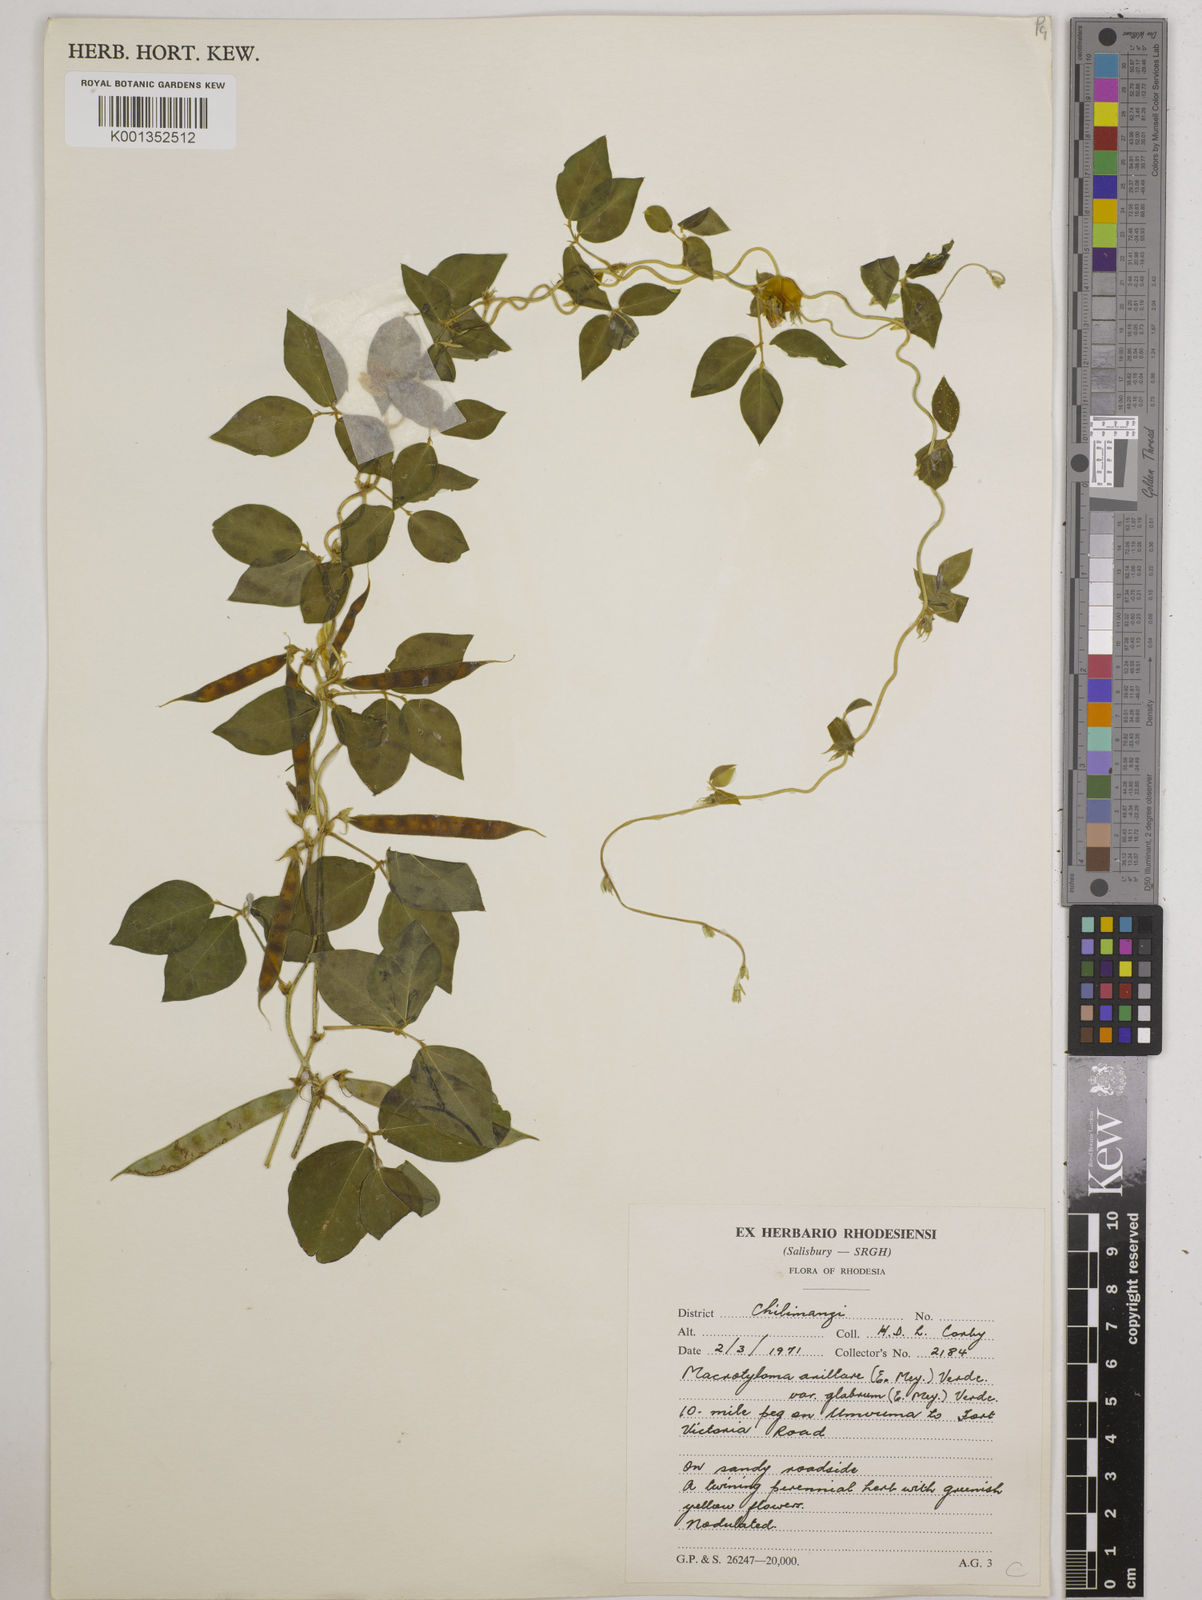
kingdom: Plantae
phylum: Tracheophyta
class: Magnoliopsida
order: Fabales
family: Fabaceae
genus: Macrotyloma
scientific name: Macrotyloma
